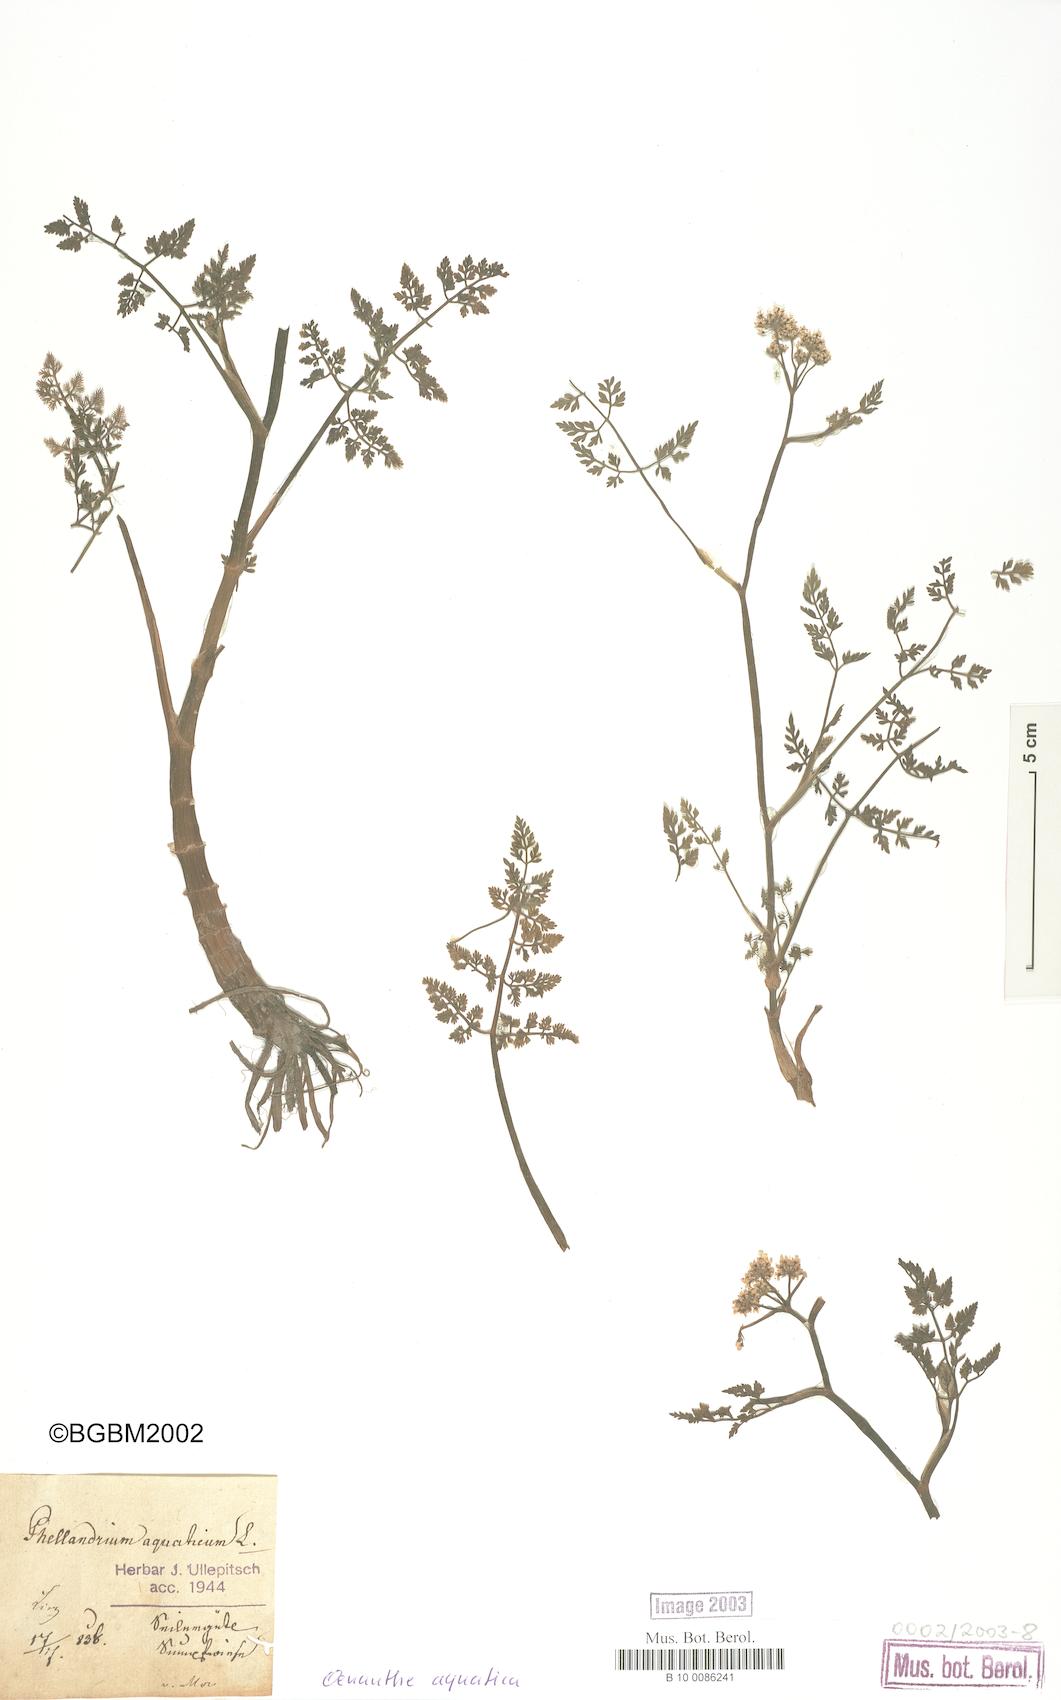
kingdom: Plantae
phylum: Tracheophyta
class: Magnoliopsida
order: Apiales
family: Apiaceae
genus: Oenanthe
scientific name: Oenanthe aquatica
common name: Fine-leaved water-dropwort
